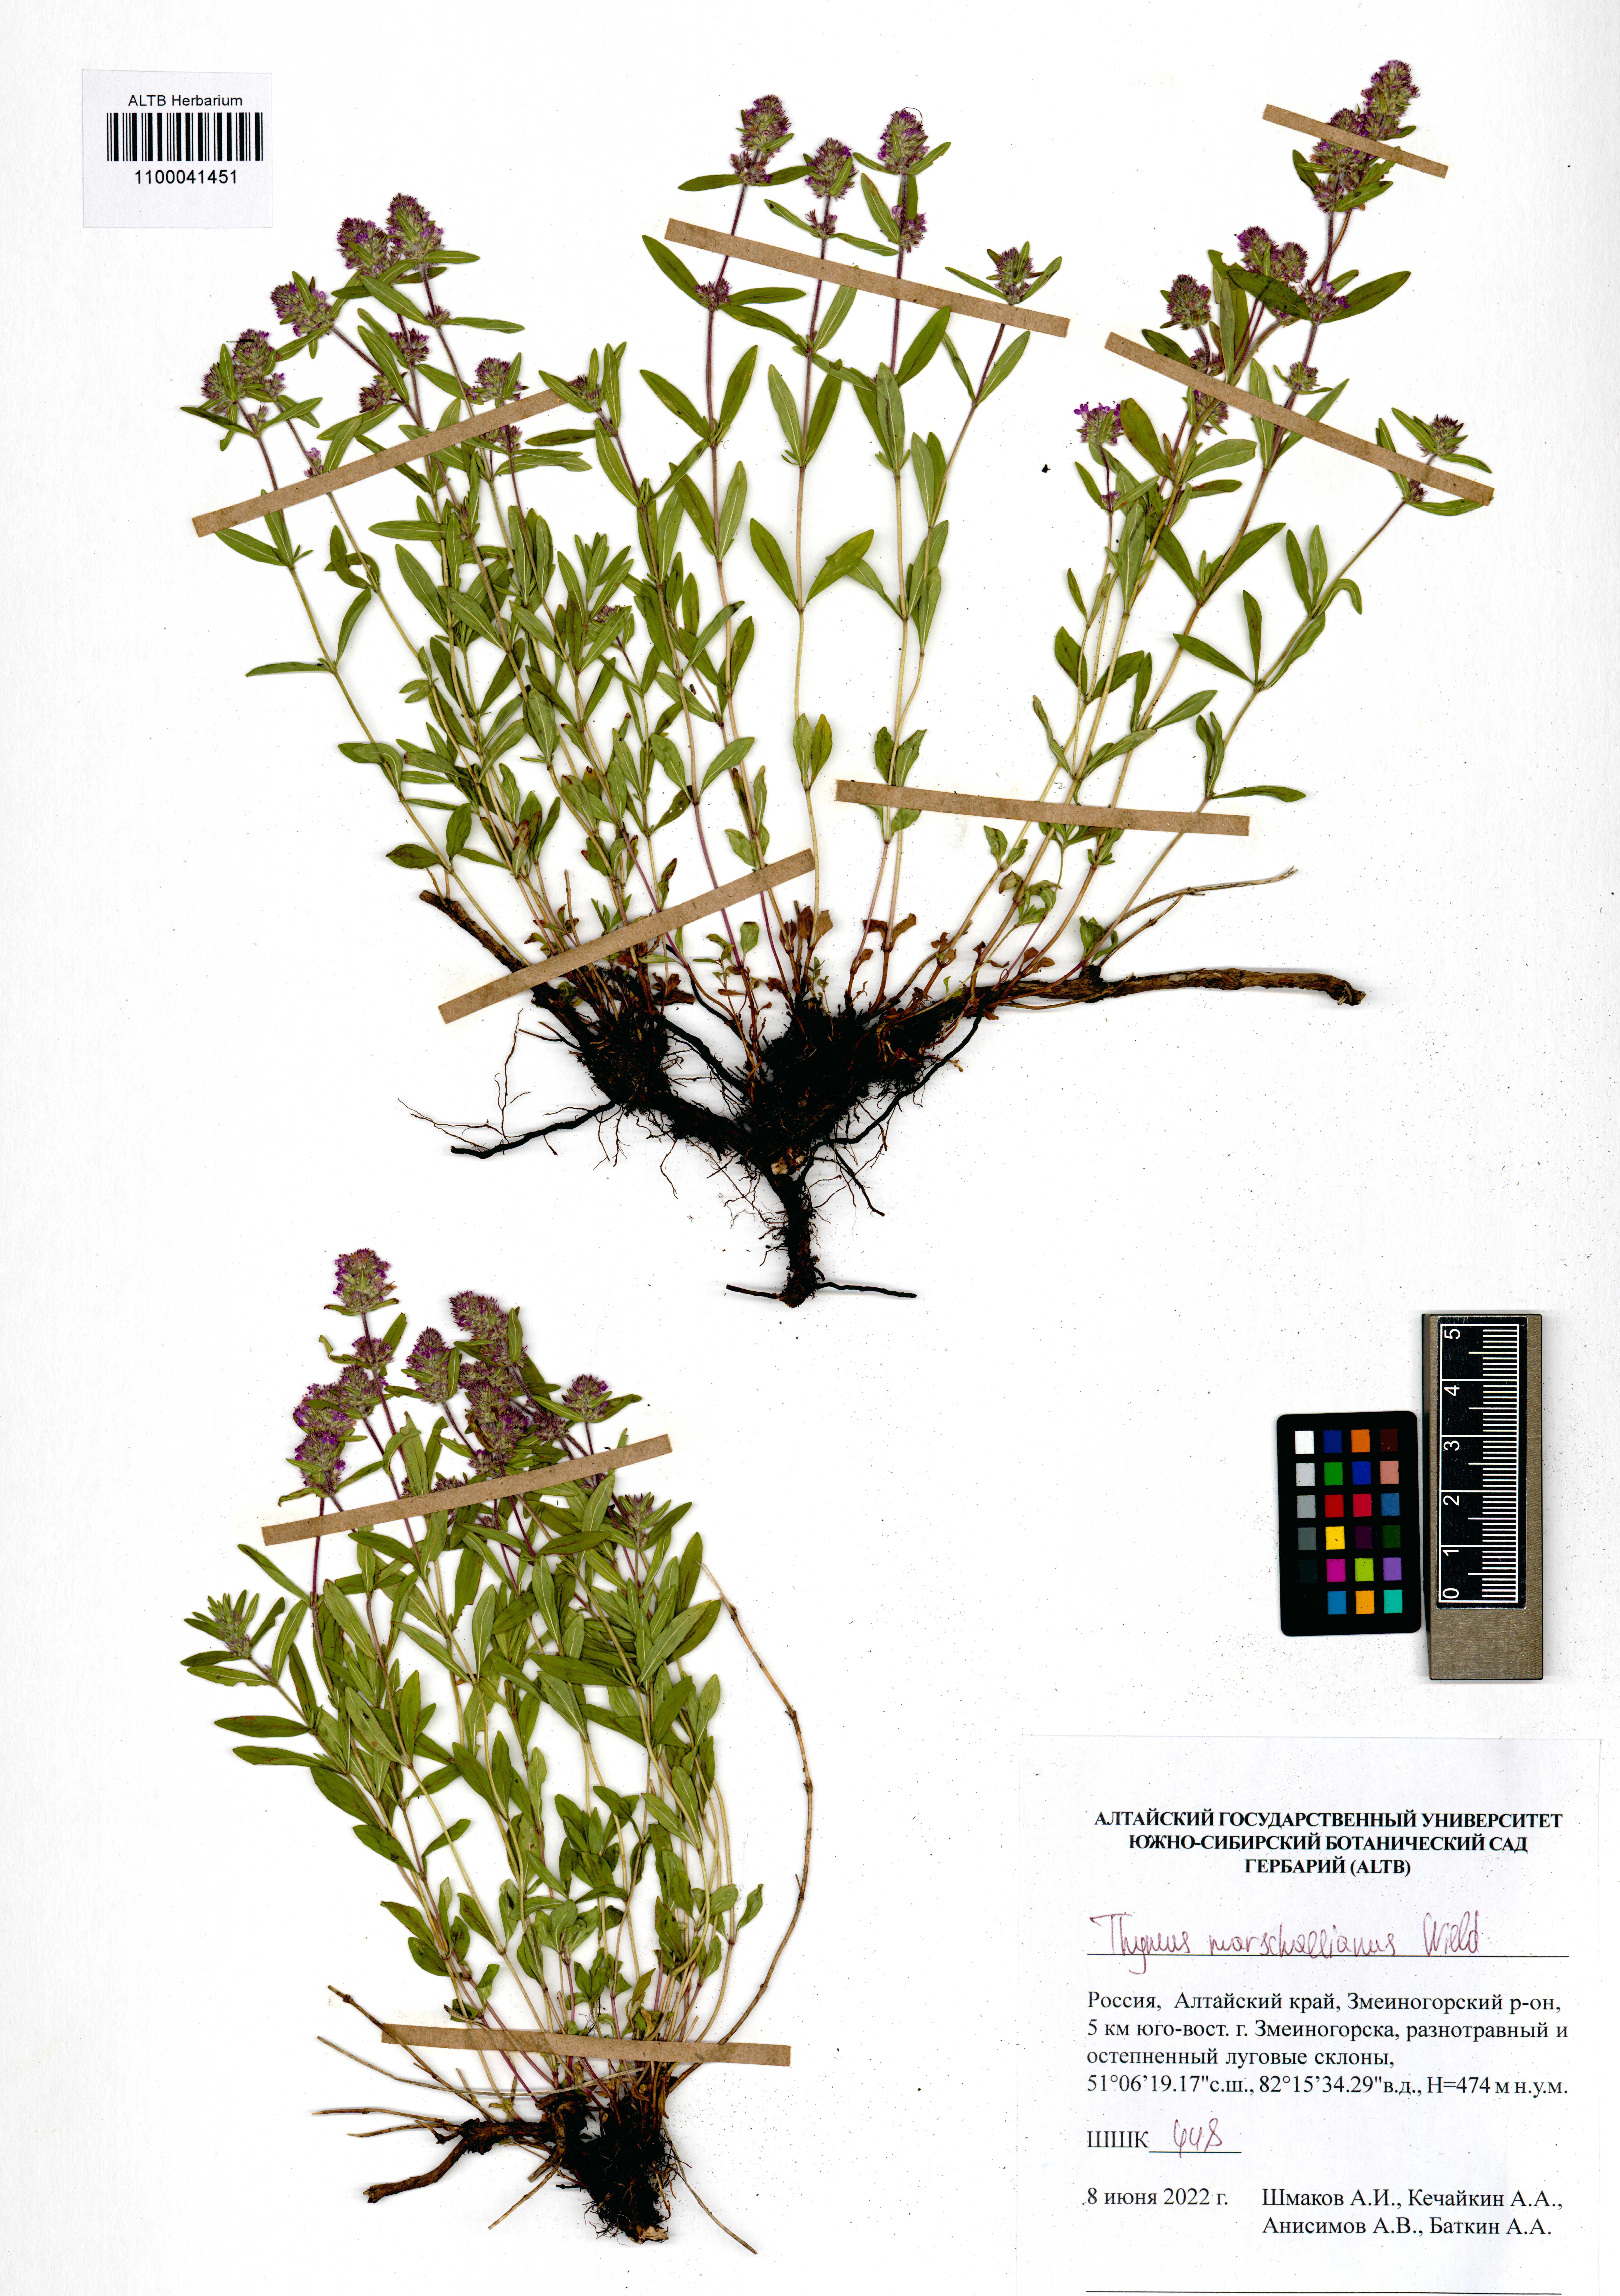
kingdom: Plantae
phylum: Tracheophyta
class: Magnoliopsida
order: Lamiales
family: Lamiaceae
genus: Thymus
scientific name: Thymus pannonicus
